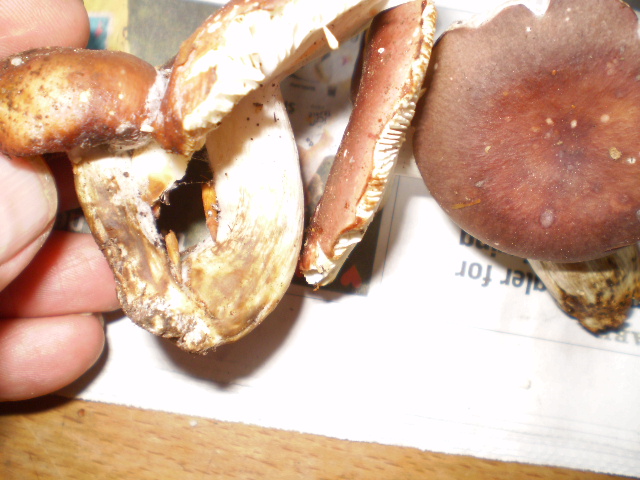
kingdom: Fungi
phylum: Basidiomycota
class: Agaricomycetes
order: Russulales
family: Russulaceae
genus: Russula
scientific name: Russula vesca
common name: spiselig skørhat
